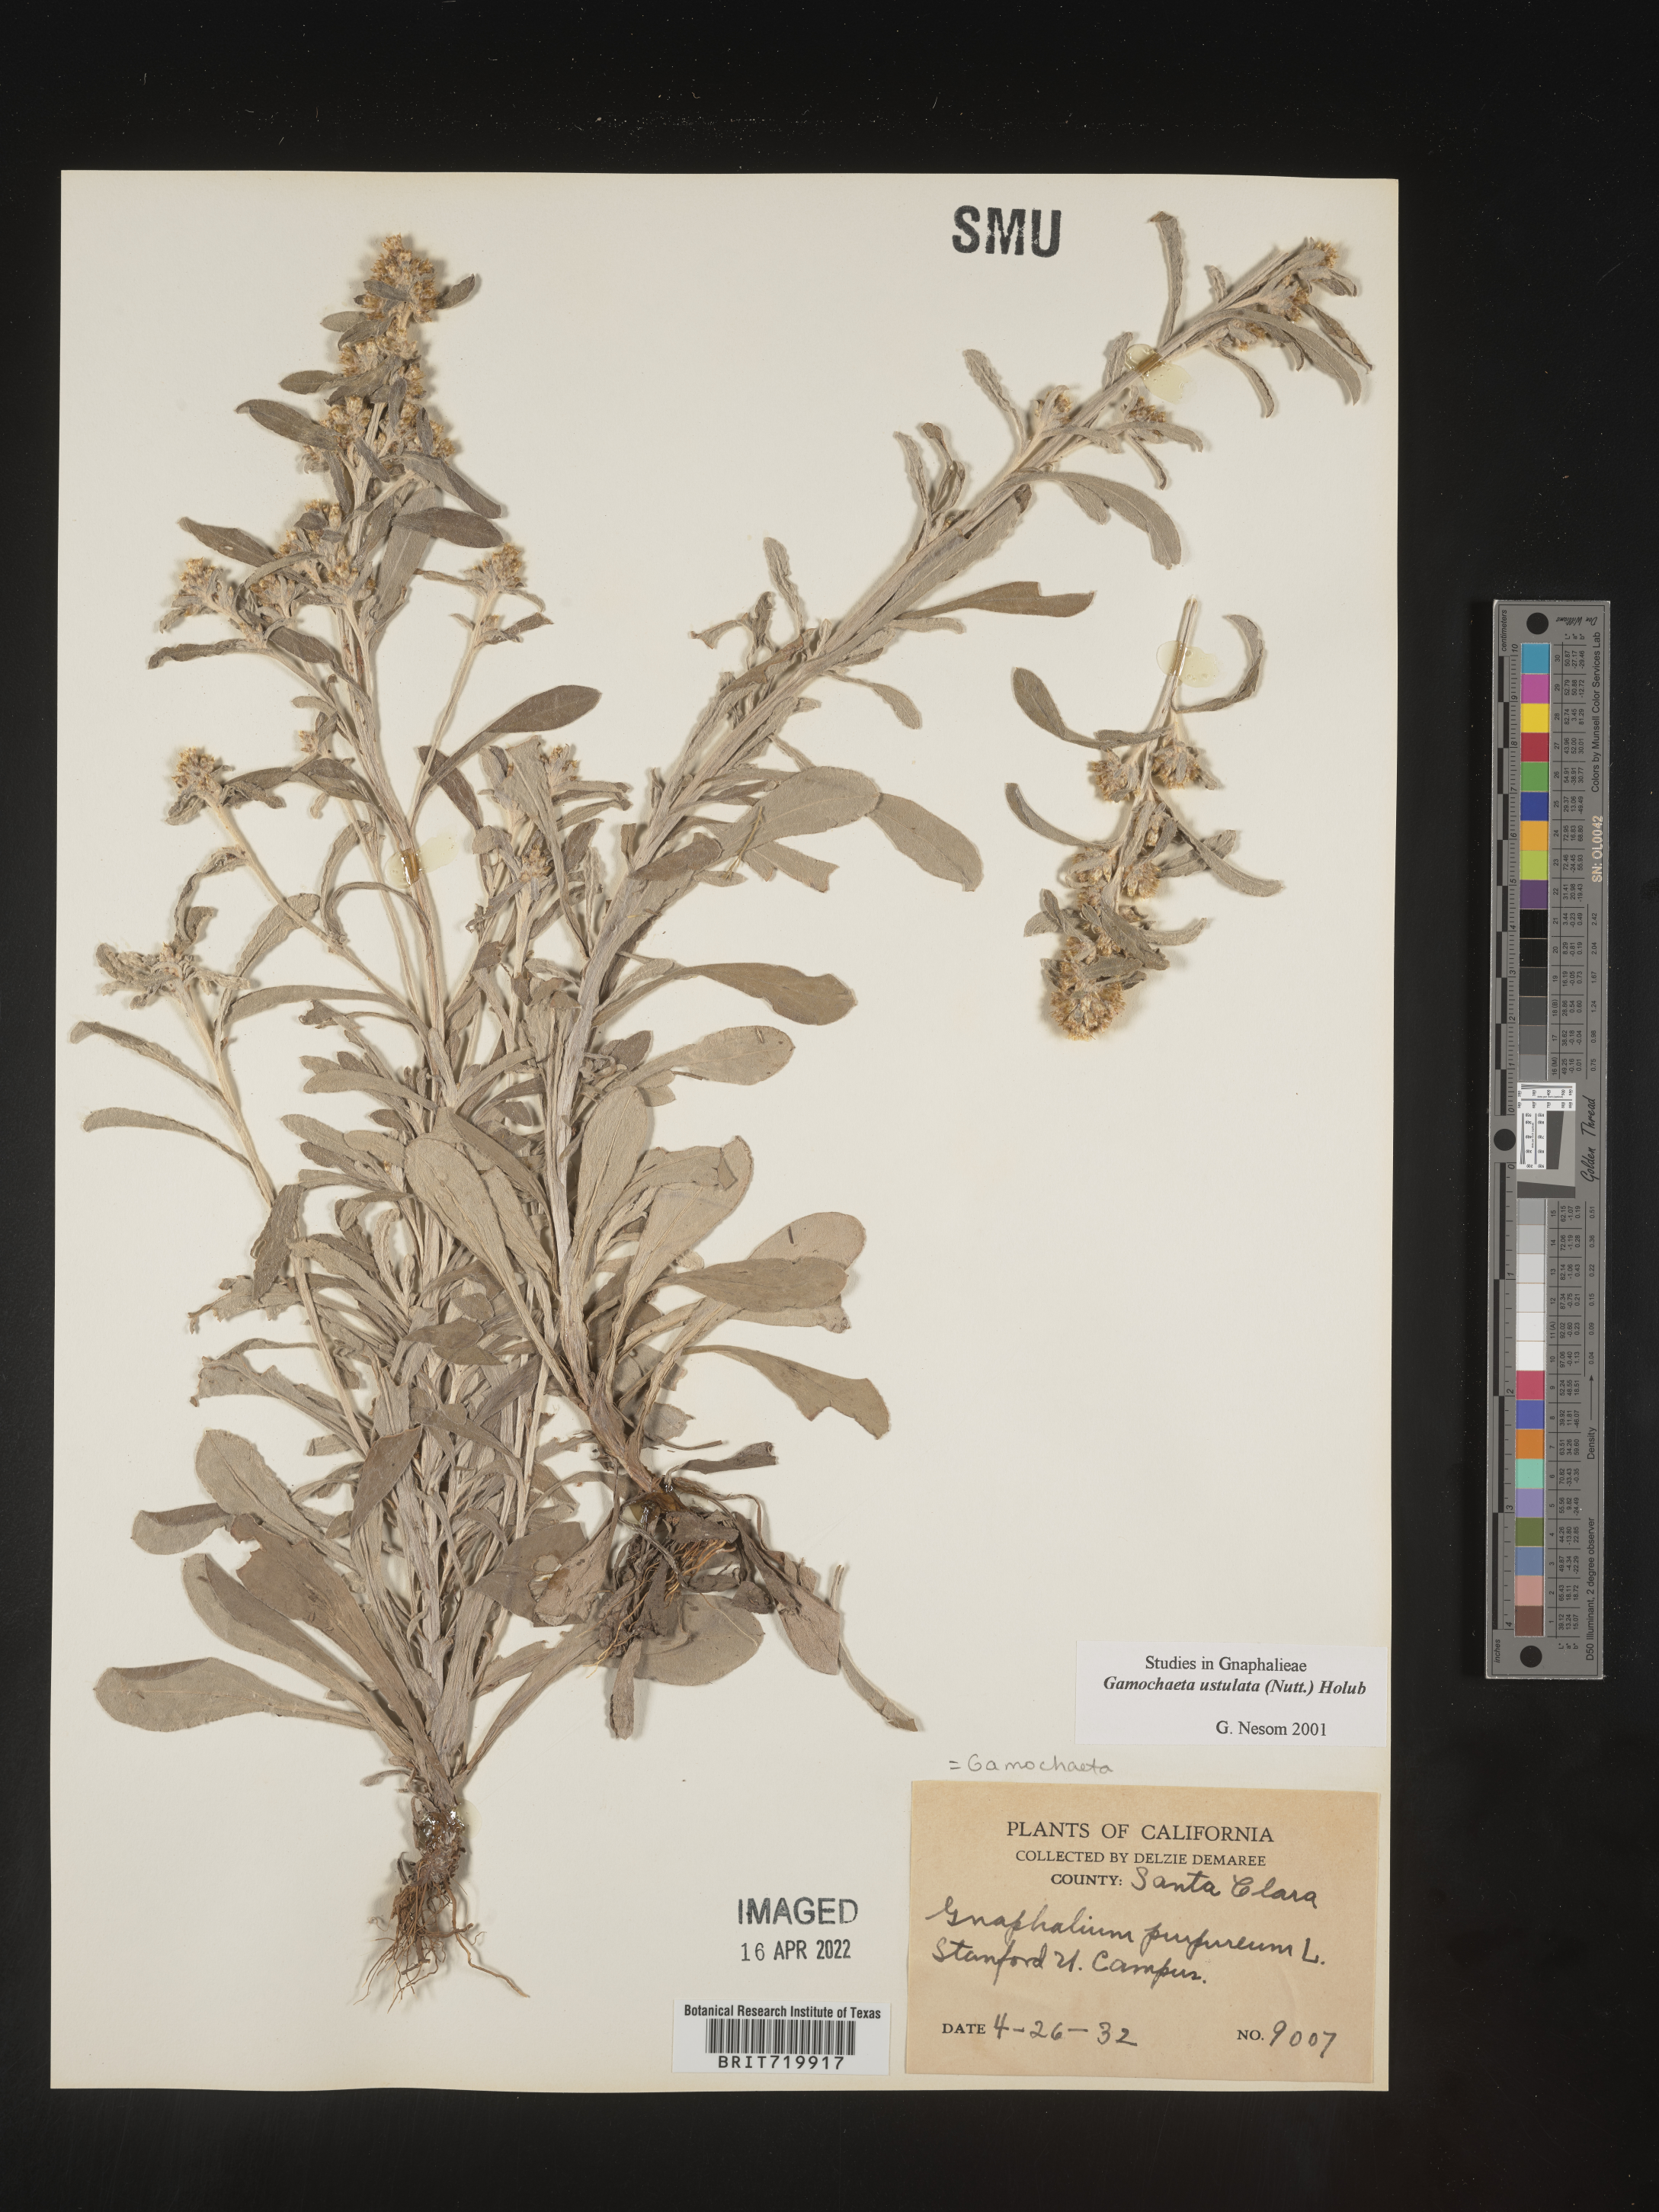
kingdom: Plantae
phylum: Tracheophyta
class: Magnoliopsida
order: Asterales
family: Asteraceae
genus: Gamochaeta
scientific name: Gamochaeta ustulata
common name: Pacific cudweed
